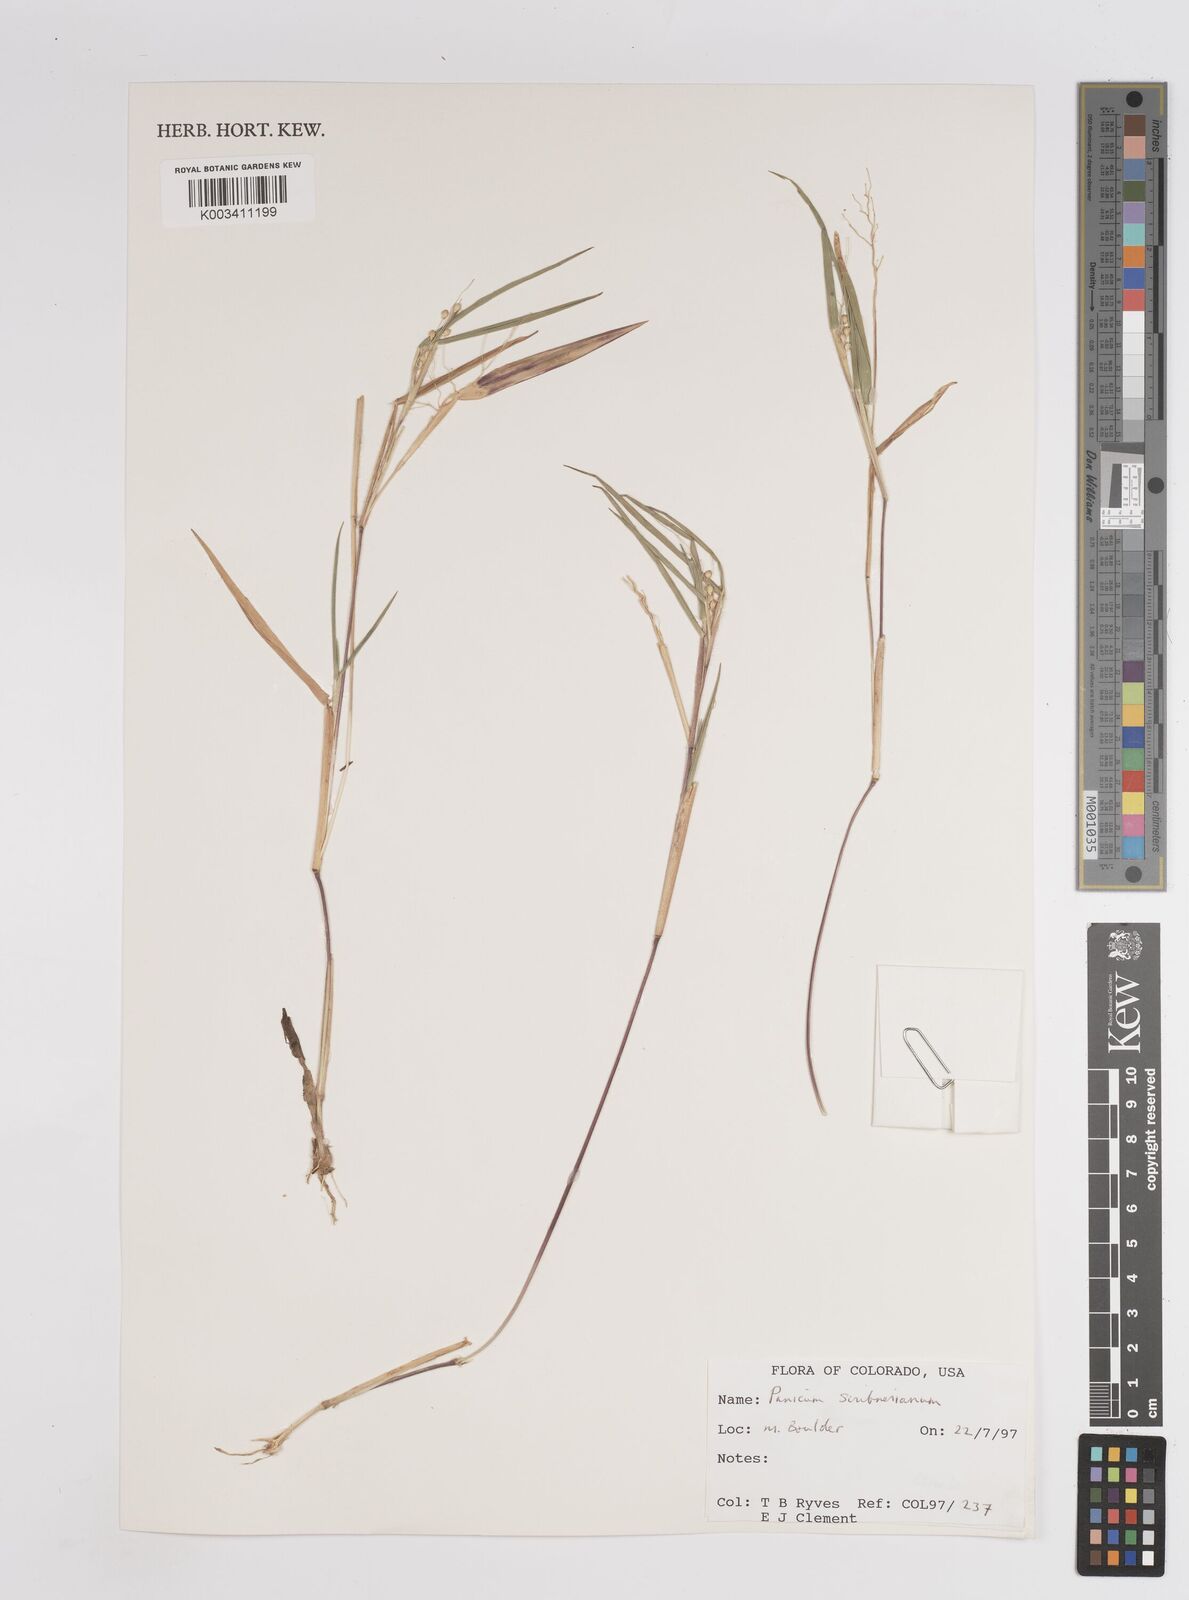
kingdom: Plantae
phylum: Tracheophyta
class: Liliopsida
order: Poales
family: Poaceae
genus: Dichanthelium
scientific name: Dichanthelium oligosanthes
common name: Few-anther obscuregrass
